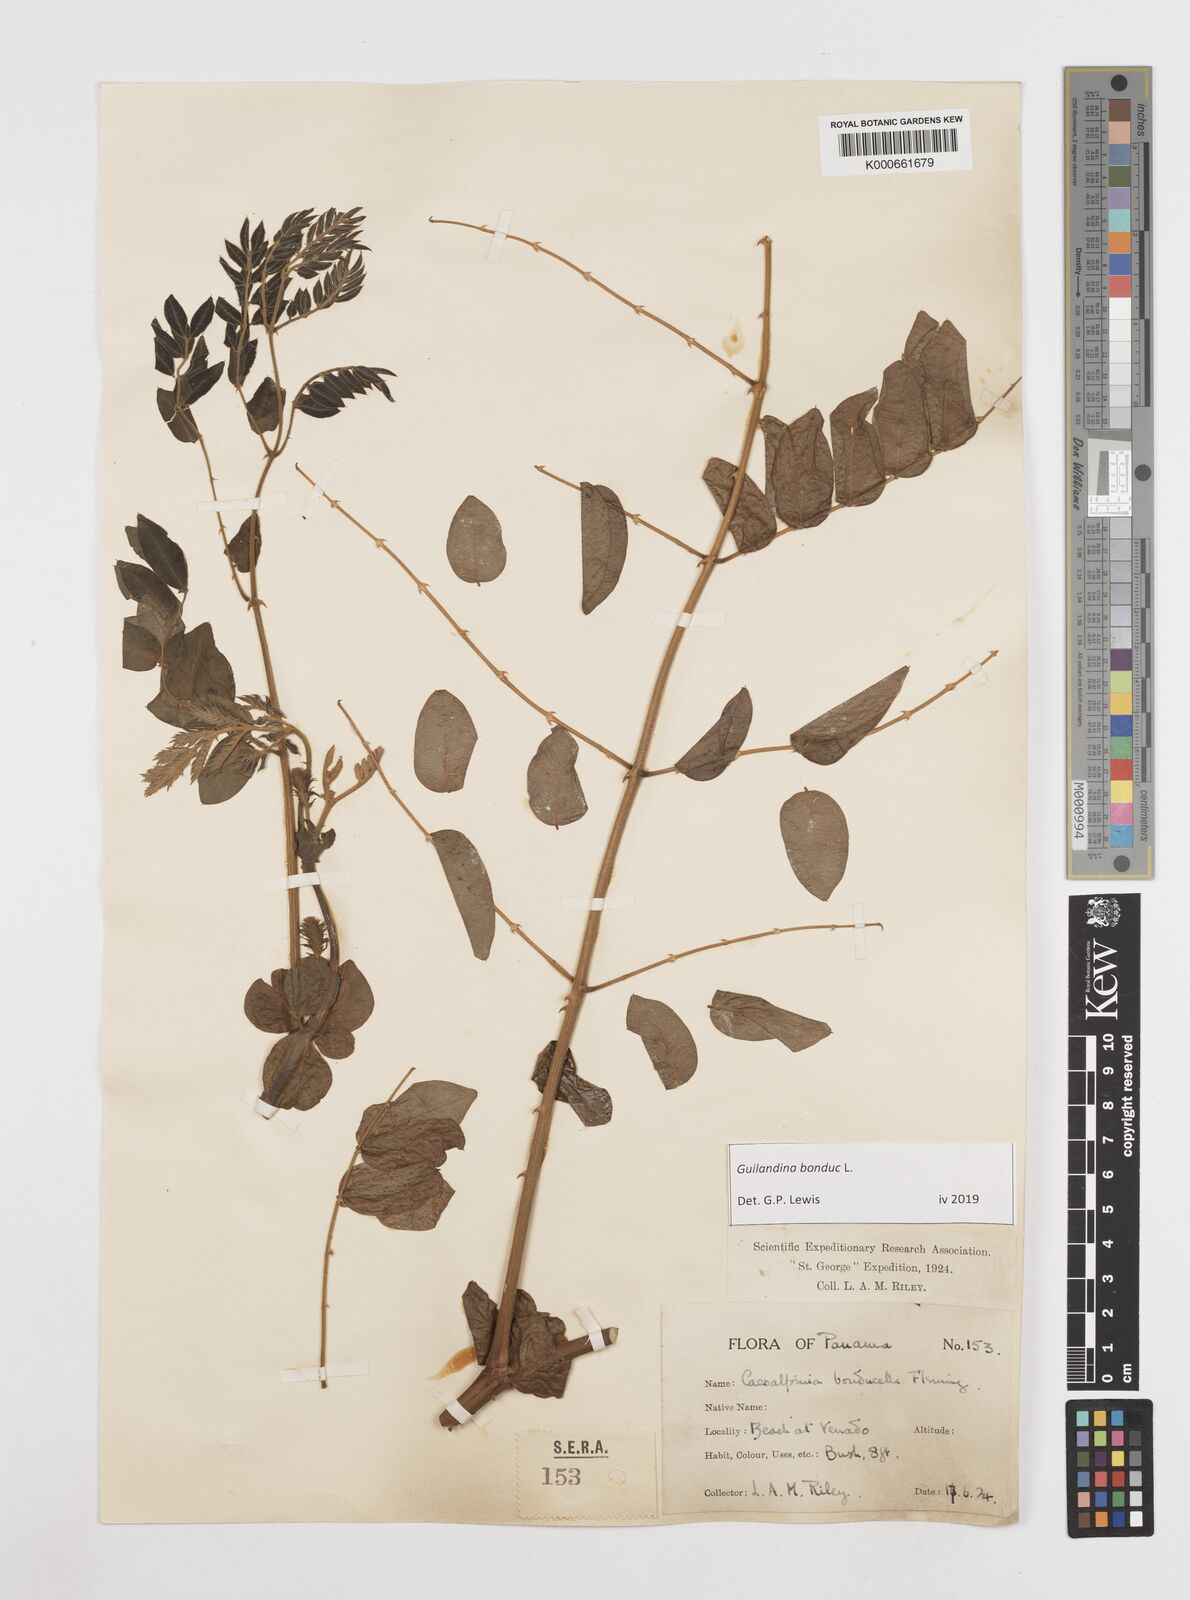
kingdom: Plantae
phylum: Tracheophyta
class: Magnoliopsida
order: Fabales
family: Fabaceae
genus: Guilandina
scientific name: Guilandina bonduc
